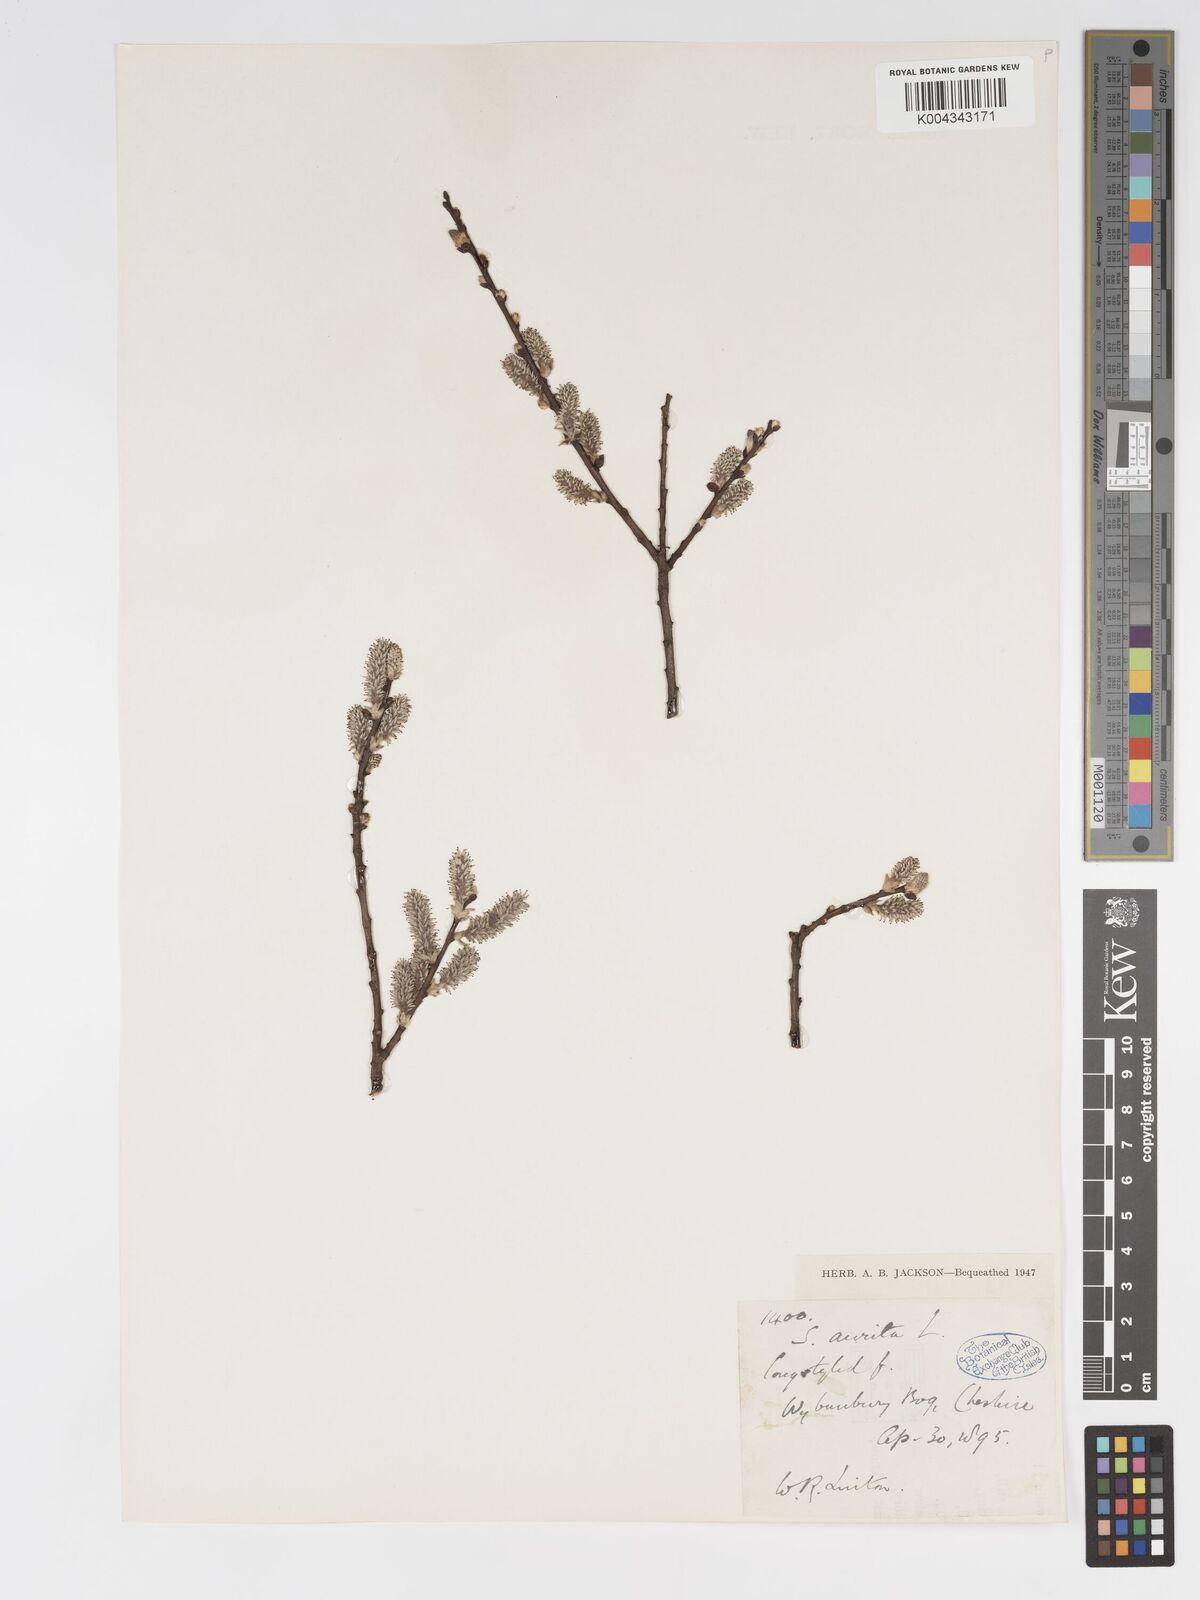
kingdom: Plantae
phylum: Tracheophyta
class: Magnoliopsida
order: Malpighiales
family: Salicaceae
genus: Salix
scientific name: Salix aurita
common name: Eared willow
